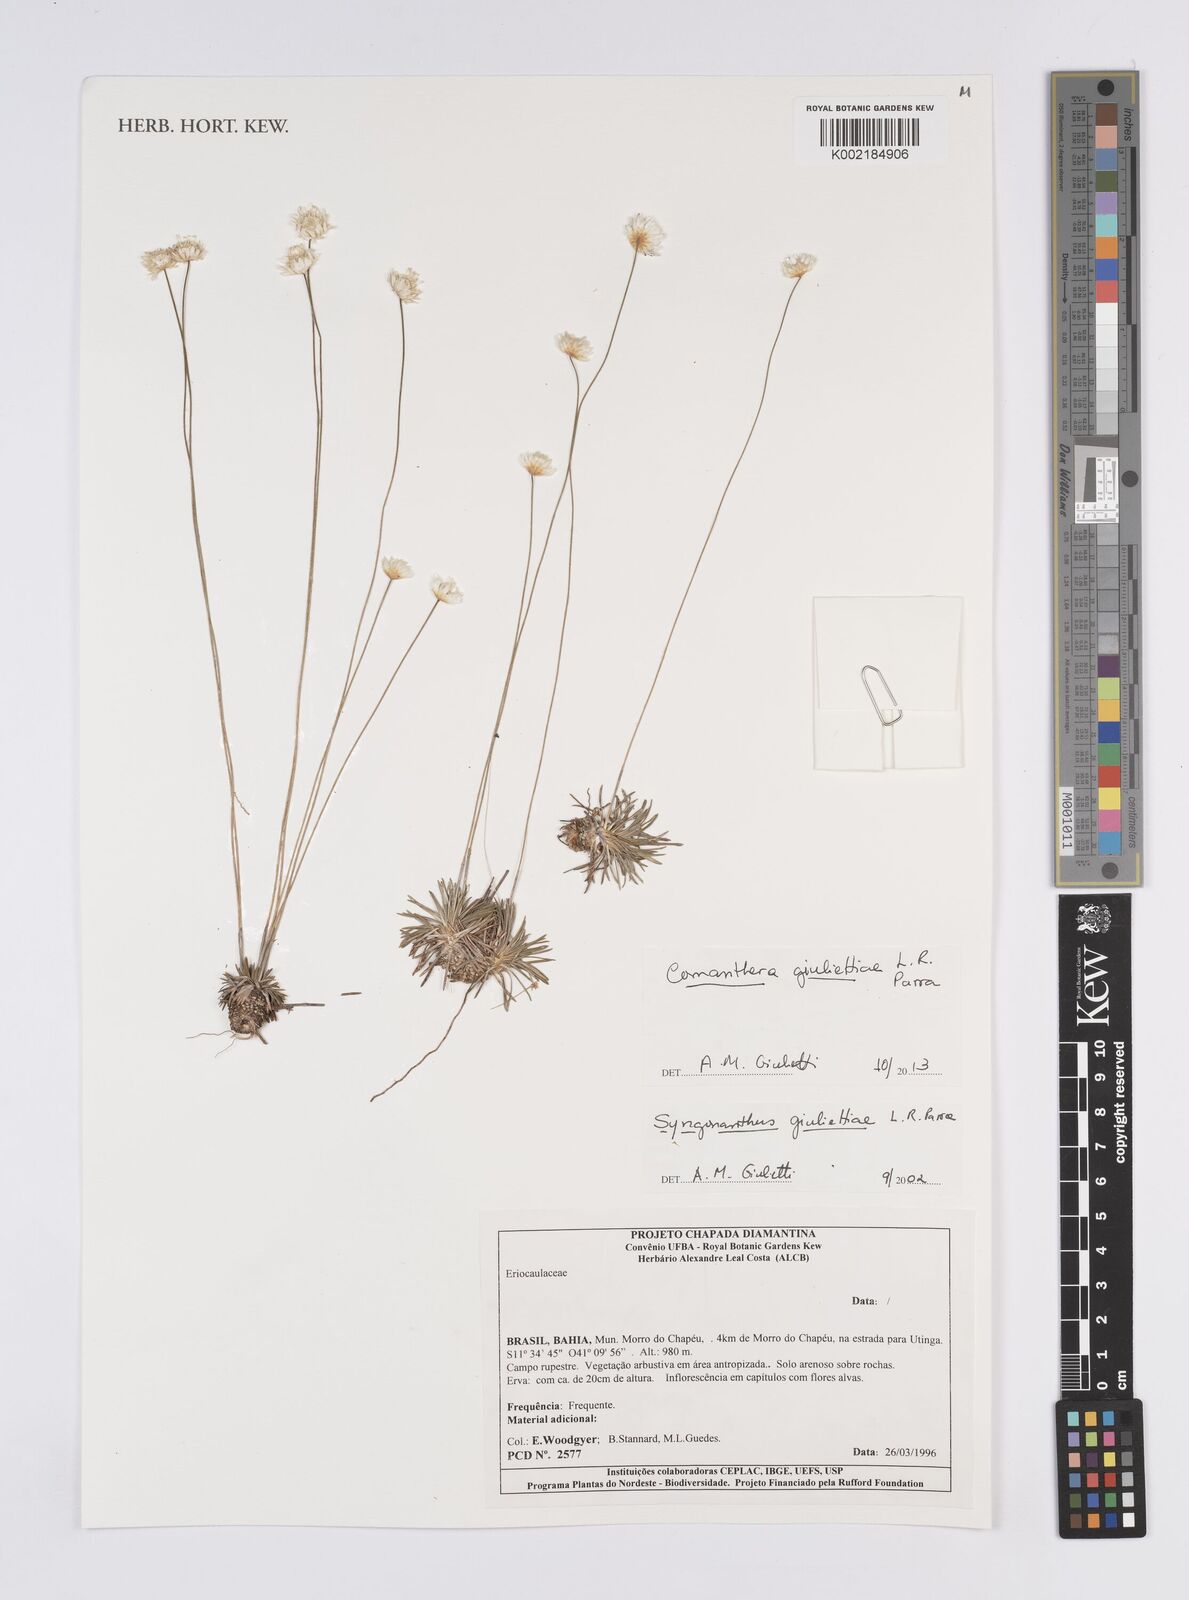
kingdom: Plantae
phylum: Tracheophyta
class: Liliopsida
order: Poales
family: Eriocaulaceae
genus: Comanthera
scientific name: Comanthera giuliettiae
